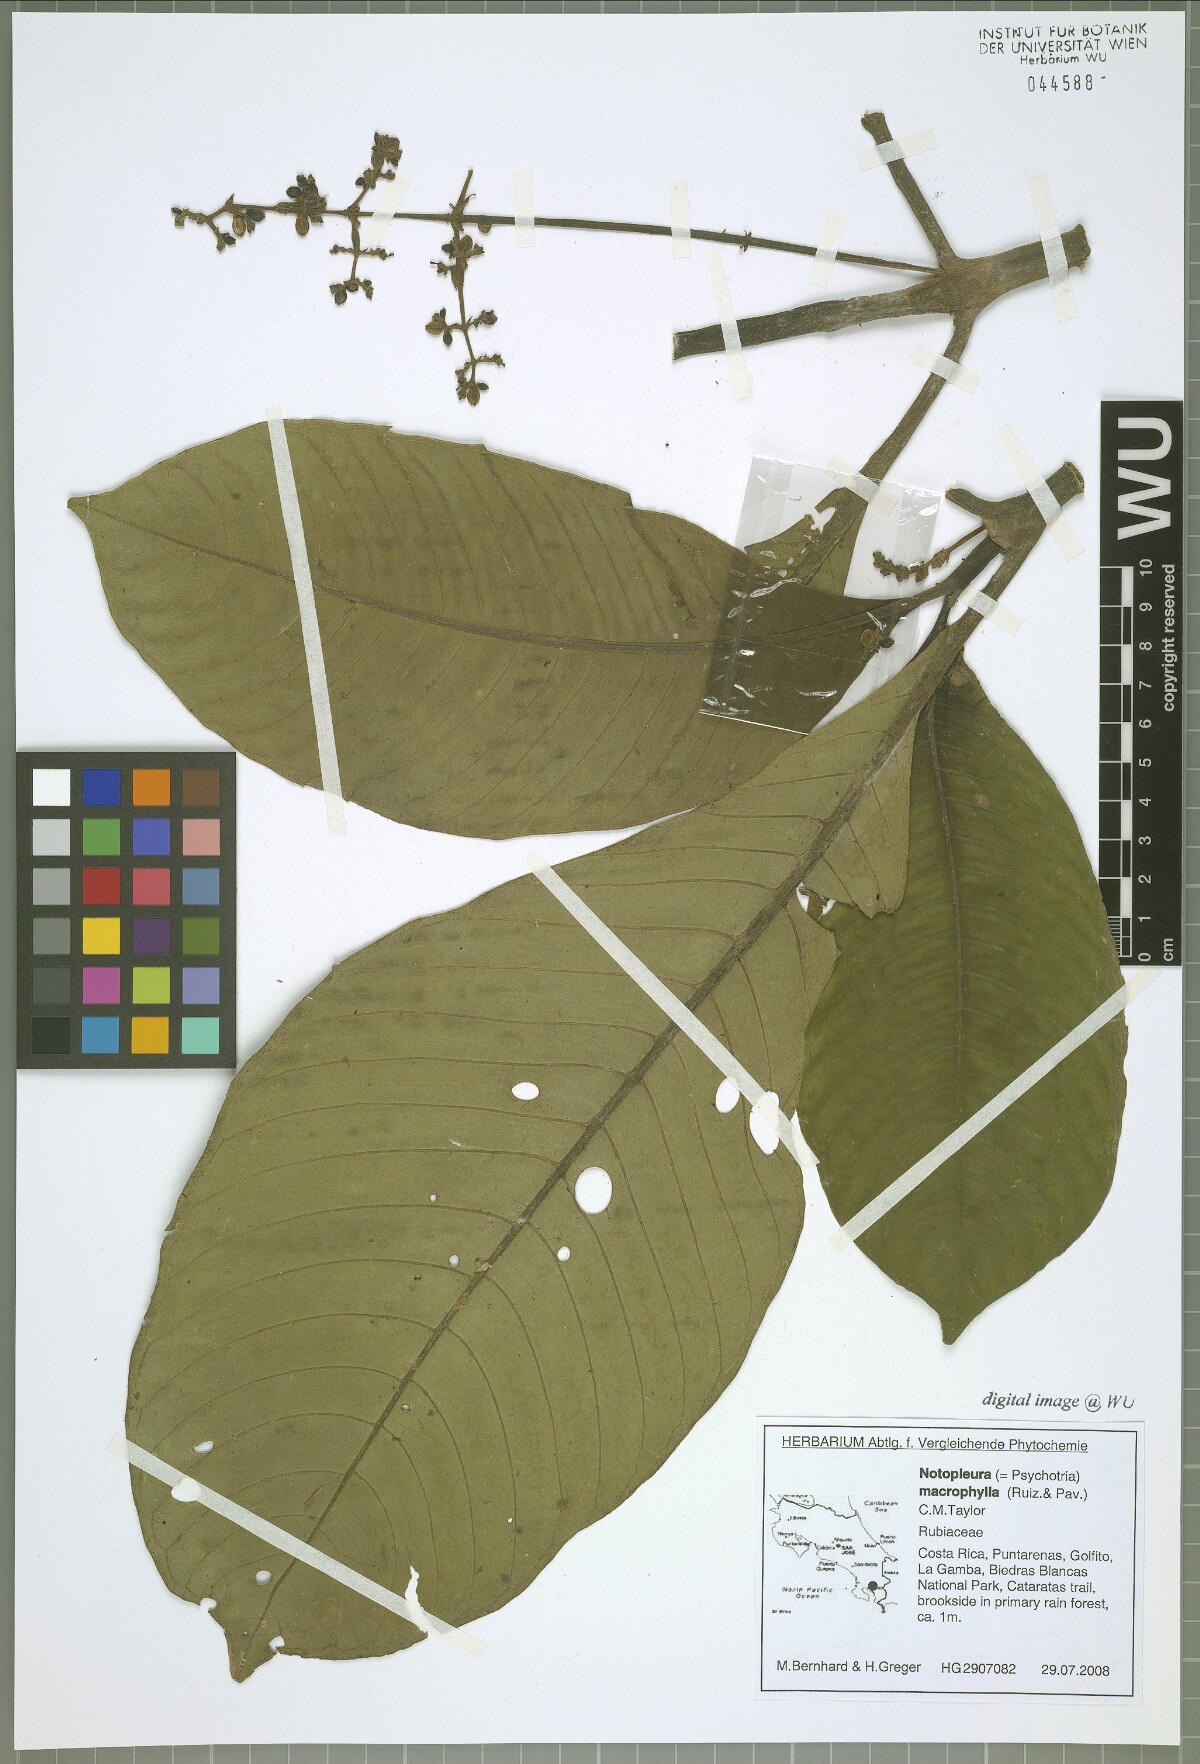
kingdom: Plantae
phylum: Tracheophyta
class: Magnoliopsida
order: Gentianales
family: Rubiaceae
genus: Notopleura
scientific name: Notopleura capacifolia
